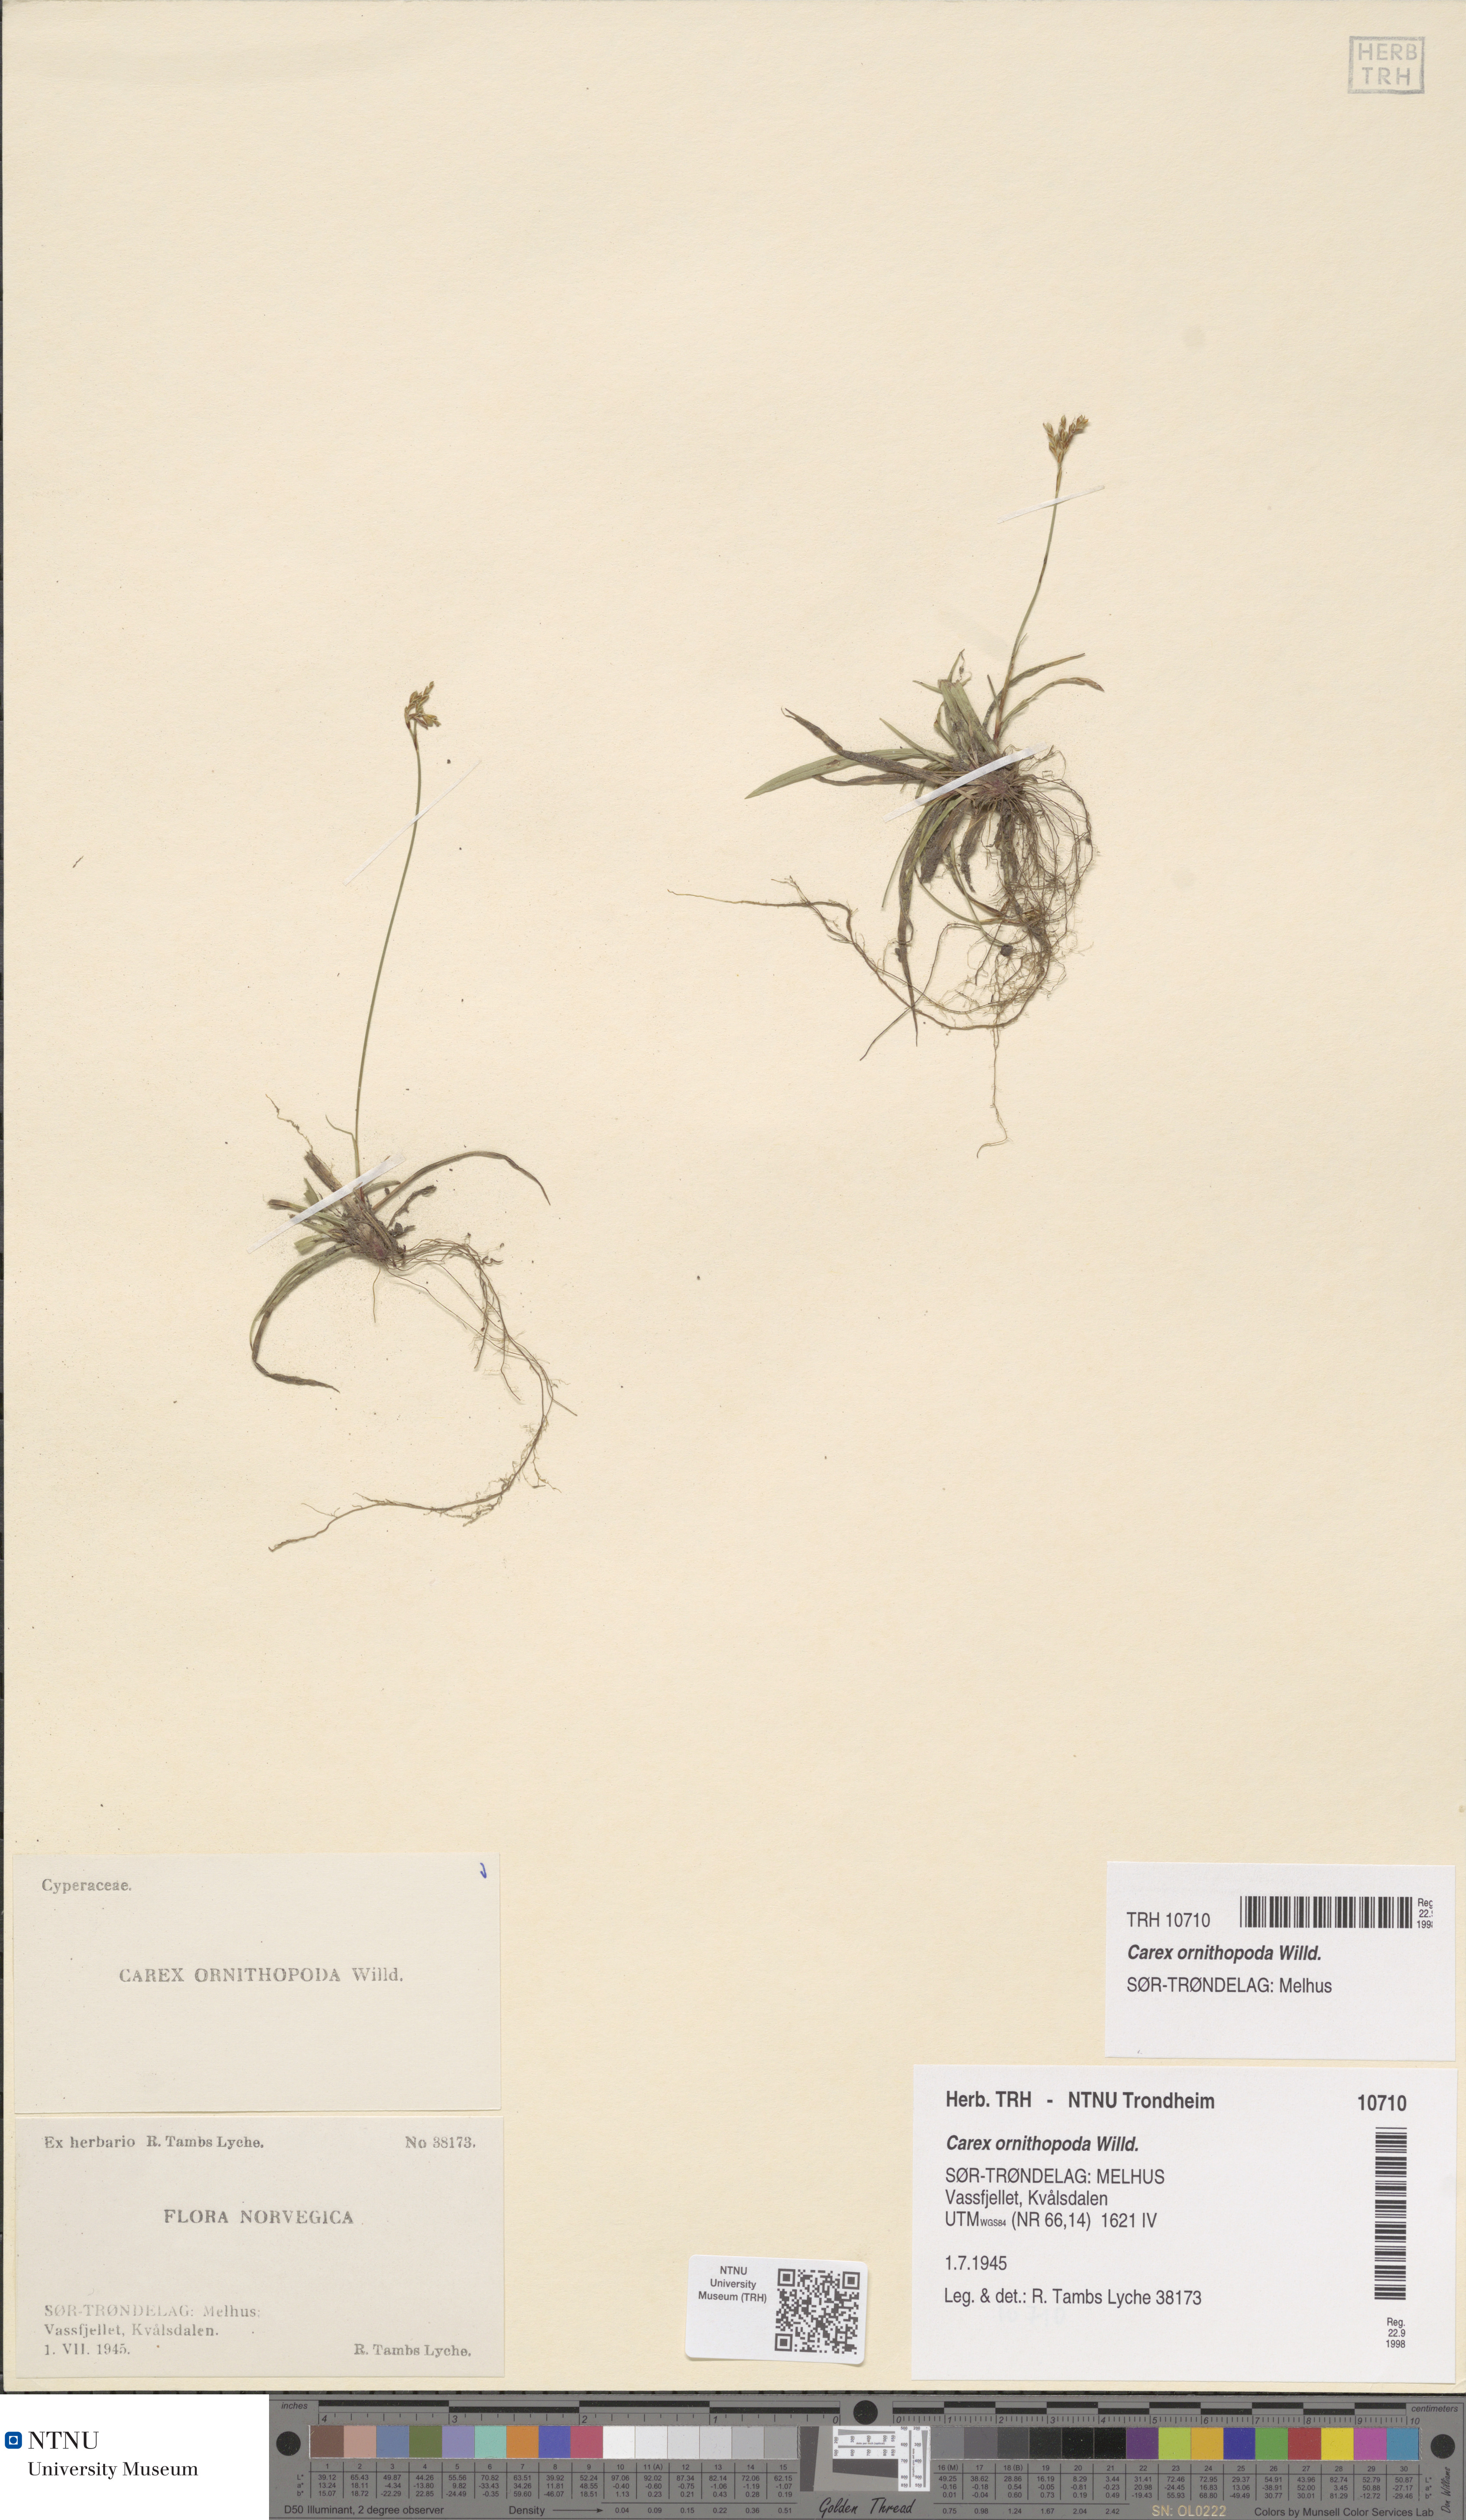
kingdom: Plantae
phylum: Tracheophyta
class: Liliopsida
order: Poales
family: Cyperaceae
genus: Carex
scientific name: Carex ornithopoda
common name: Bird's-foot sedge
